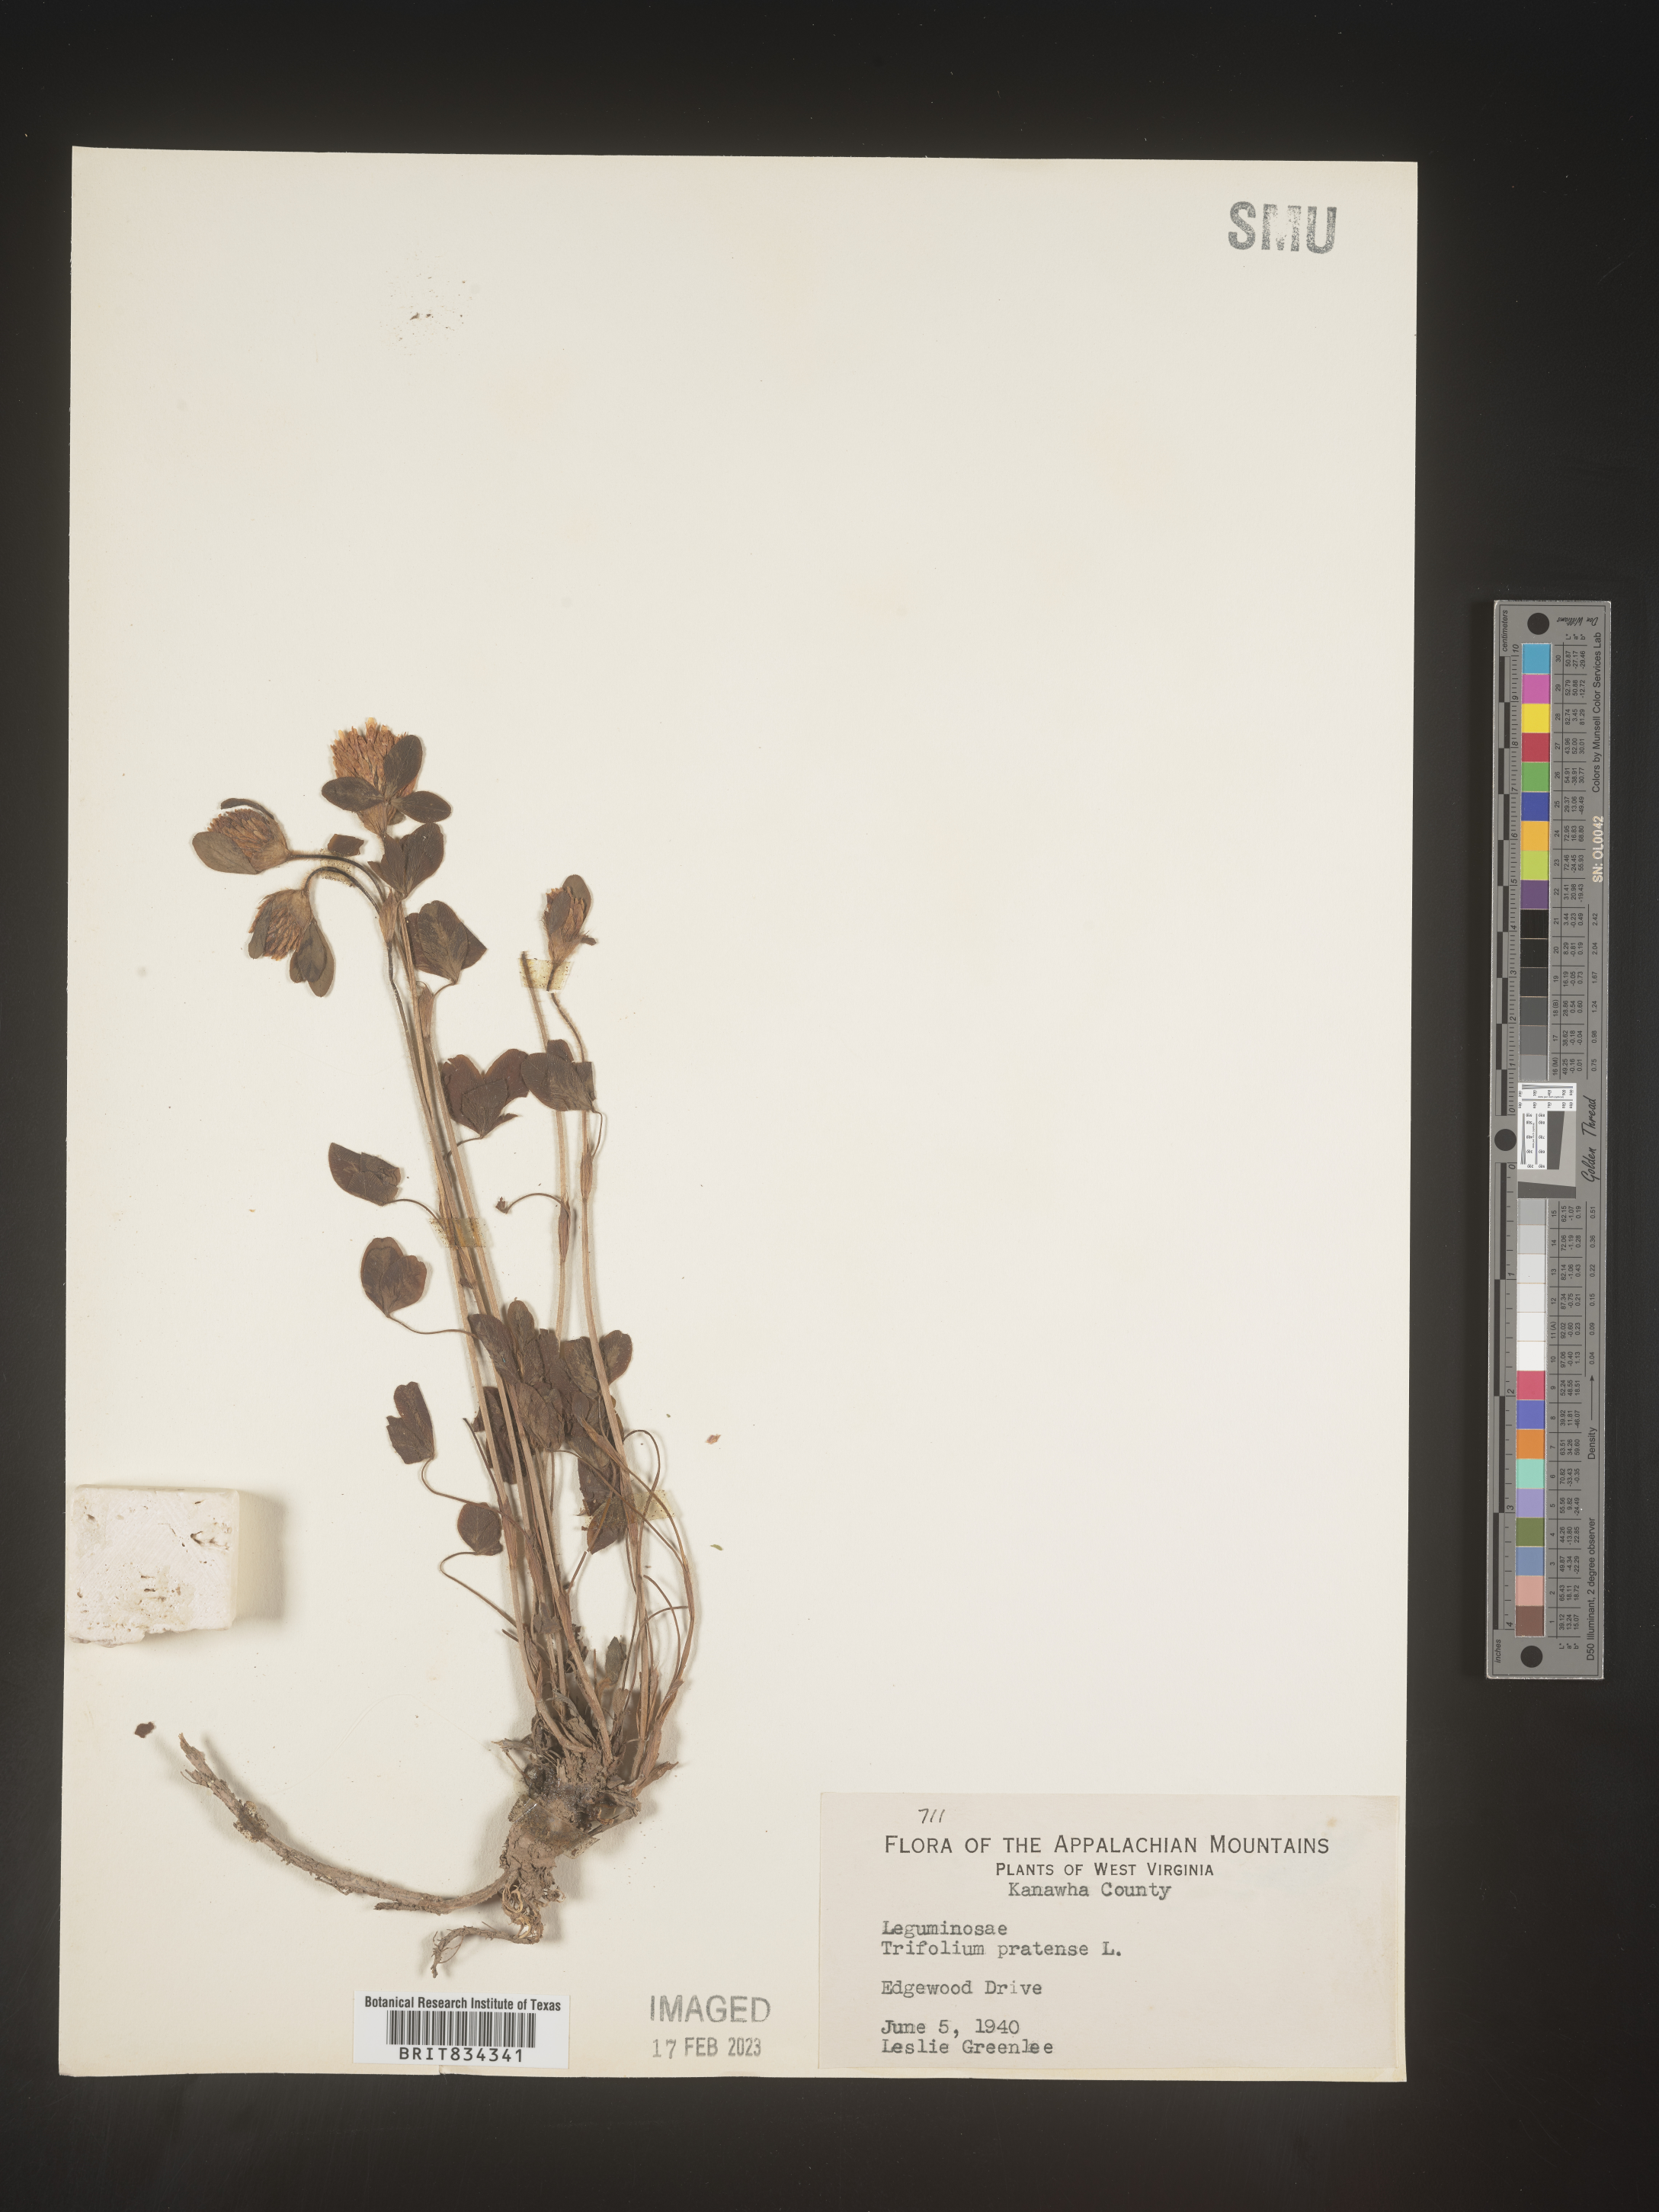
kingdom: Plantae
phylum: Tracheophyta
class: Magnoliopsida
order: Fabales
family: Fabaceae
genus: Trifolium
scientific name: Trifolium pratense
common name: Red clover
